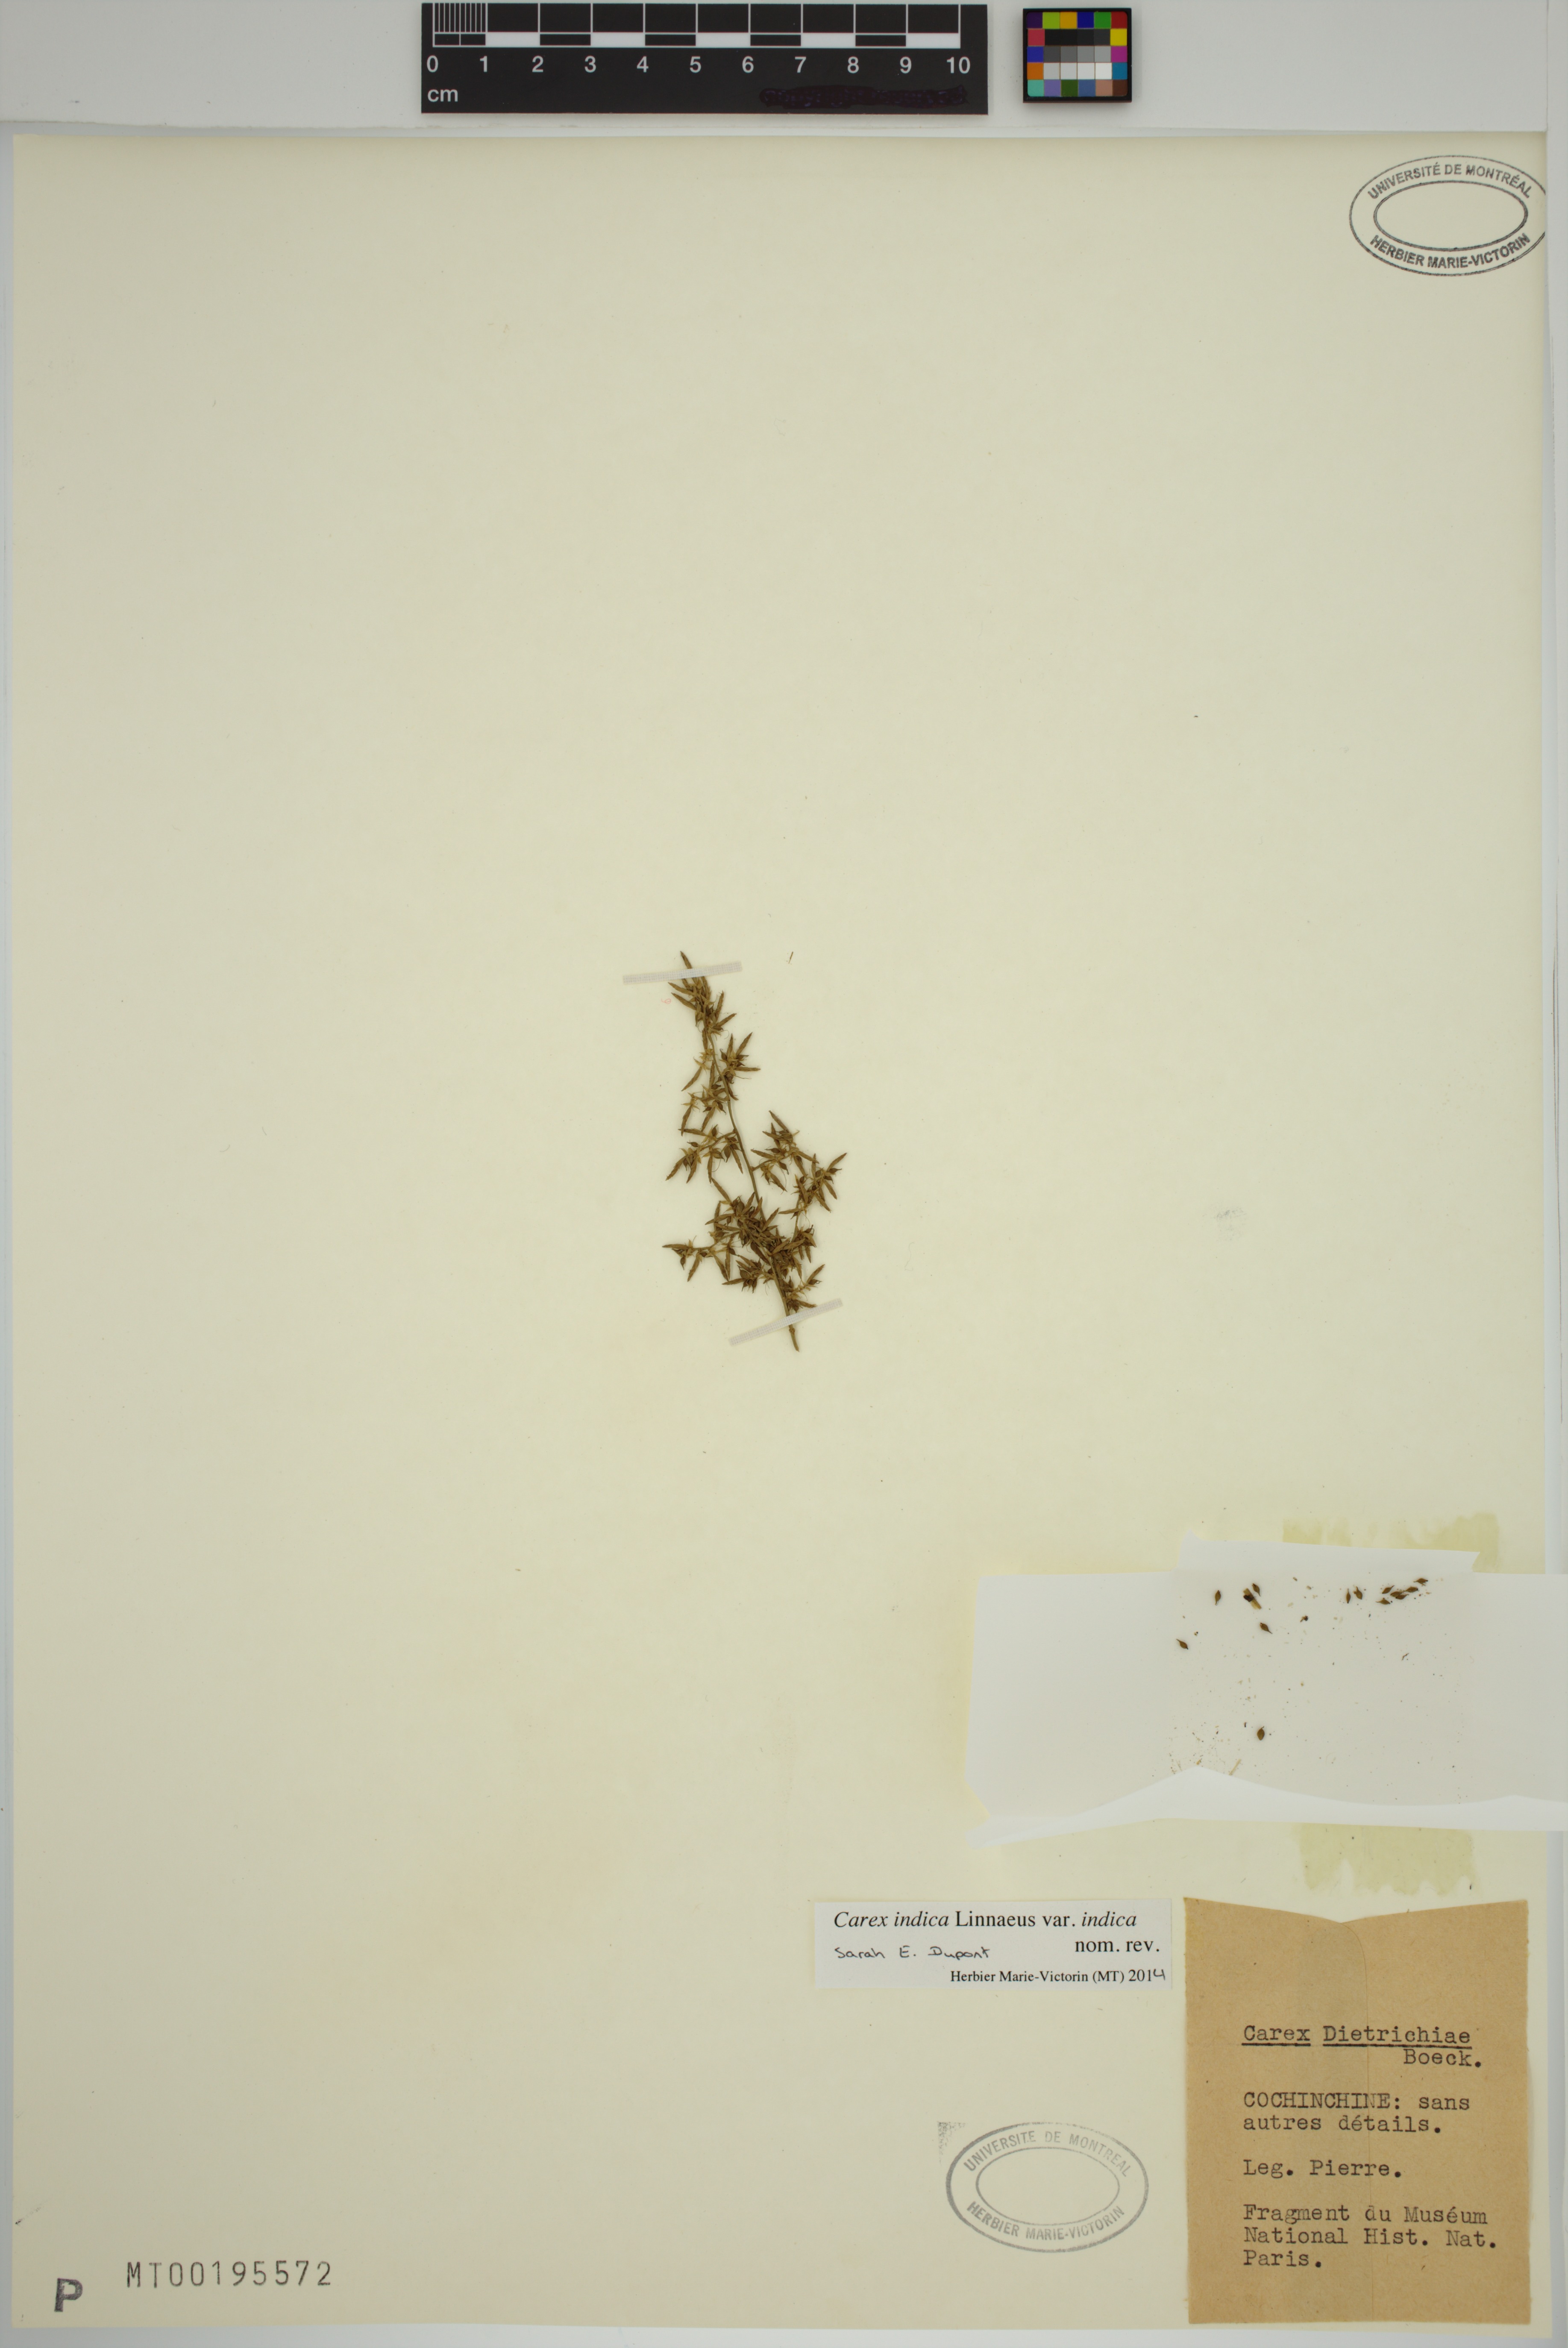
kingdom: Plantae
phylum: Tracheophyta
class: Liliopsida
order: Poales
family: Cyperaceae
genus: Carex
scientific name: Carex indica
